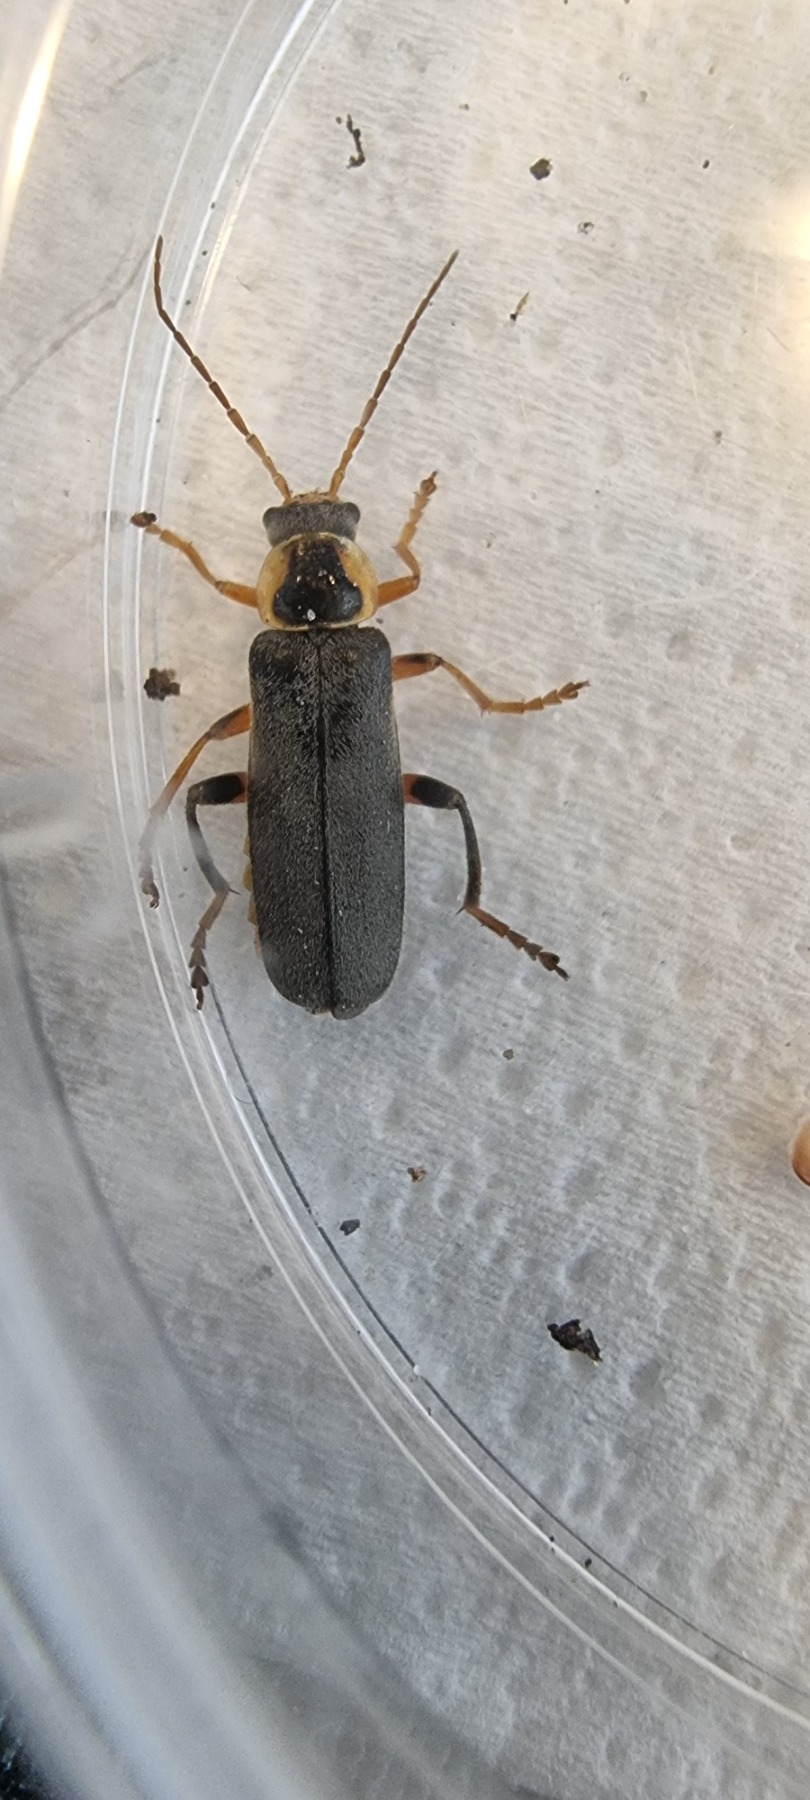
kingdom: Animalia
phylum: Arthropoda
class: Insecta
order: Coleoptera
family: Cantharidae
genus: Cantharis
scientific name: Cantharis nigricans
